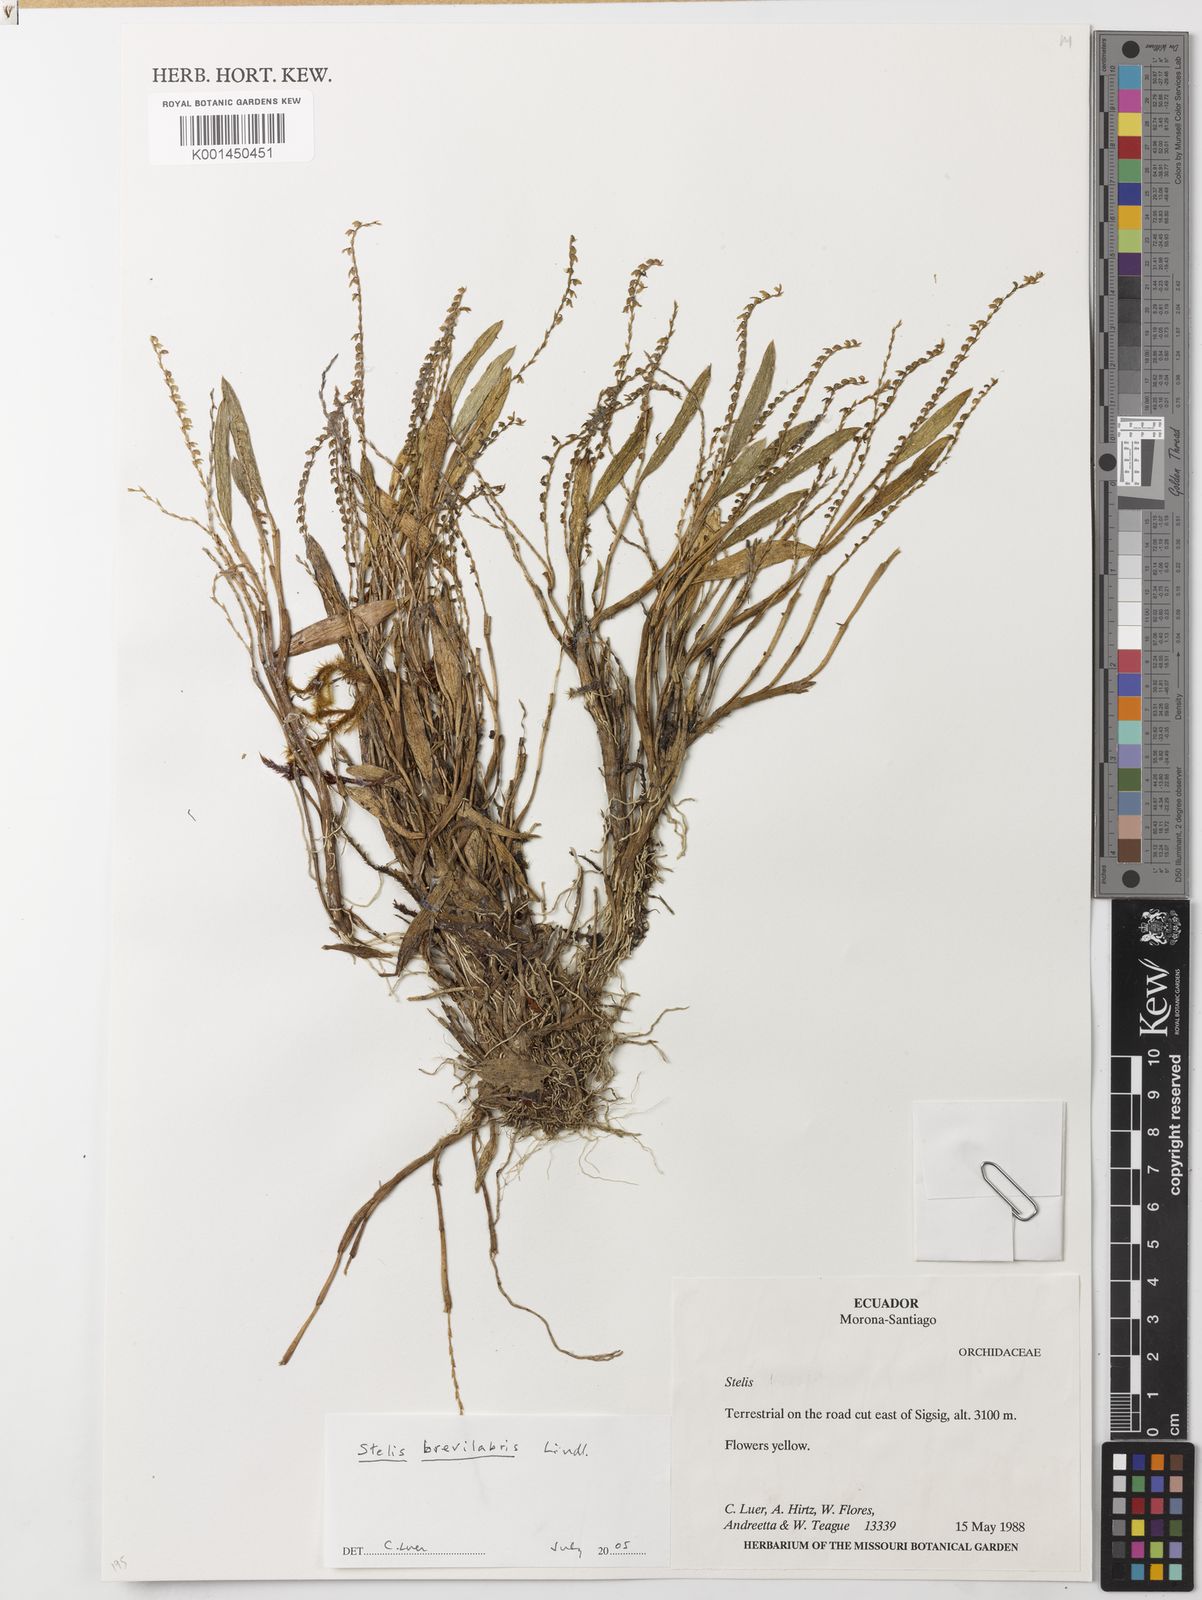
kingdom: Plantae
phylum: Tracheophyta
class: Liliopsida
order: Asparagales
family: Orchidaceae
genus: Stelis
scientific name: Stelis brevilabris
